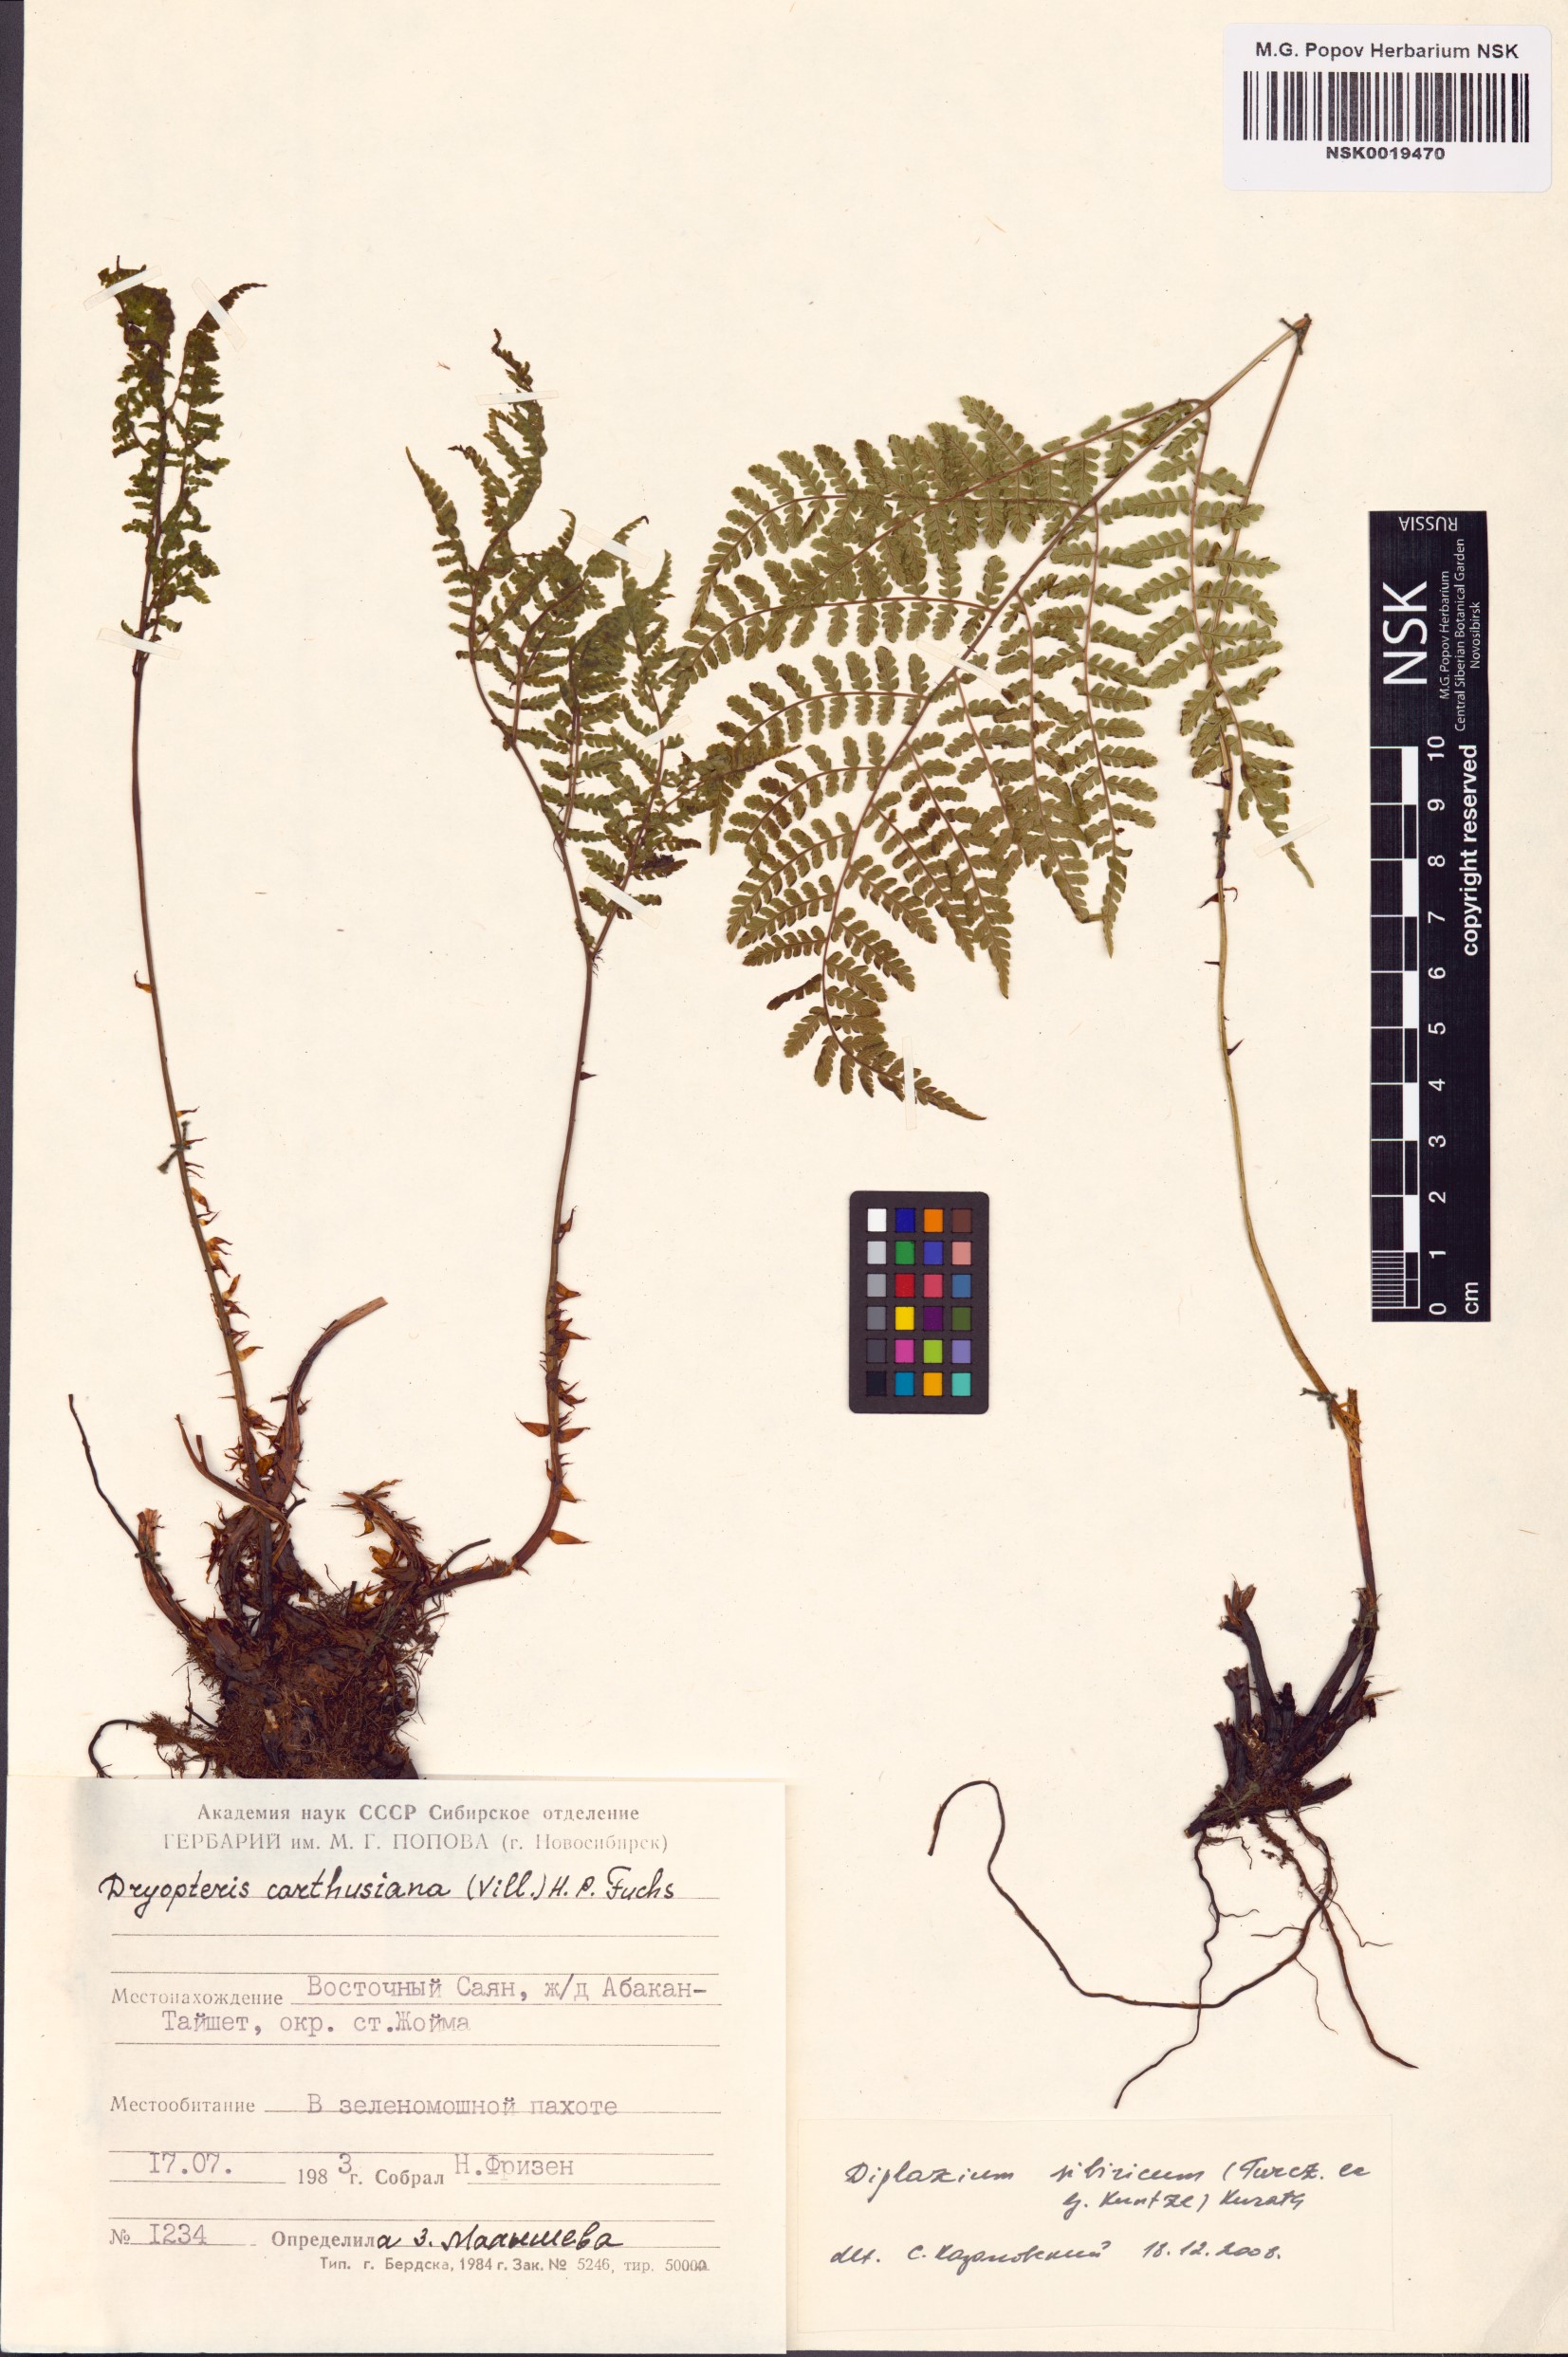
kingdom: Plantae
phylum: Tracheophyta
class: Polypodiopsida
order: Polypodiales
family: Athyriaceae
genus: Diplazium
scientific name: Diplazium sibiricum
